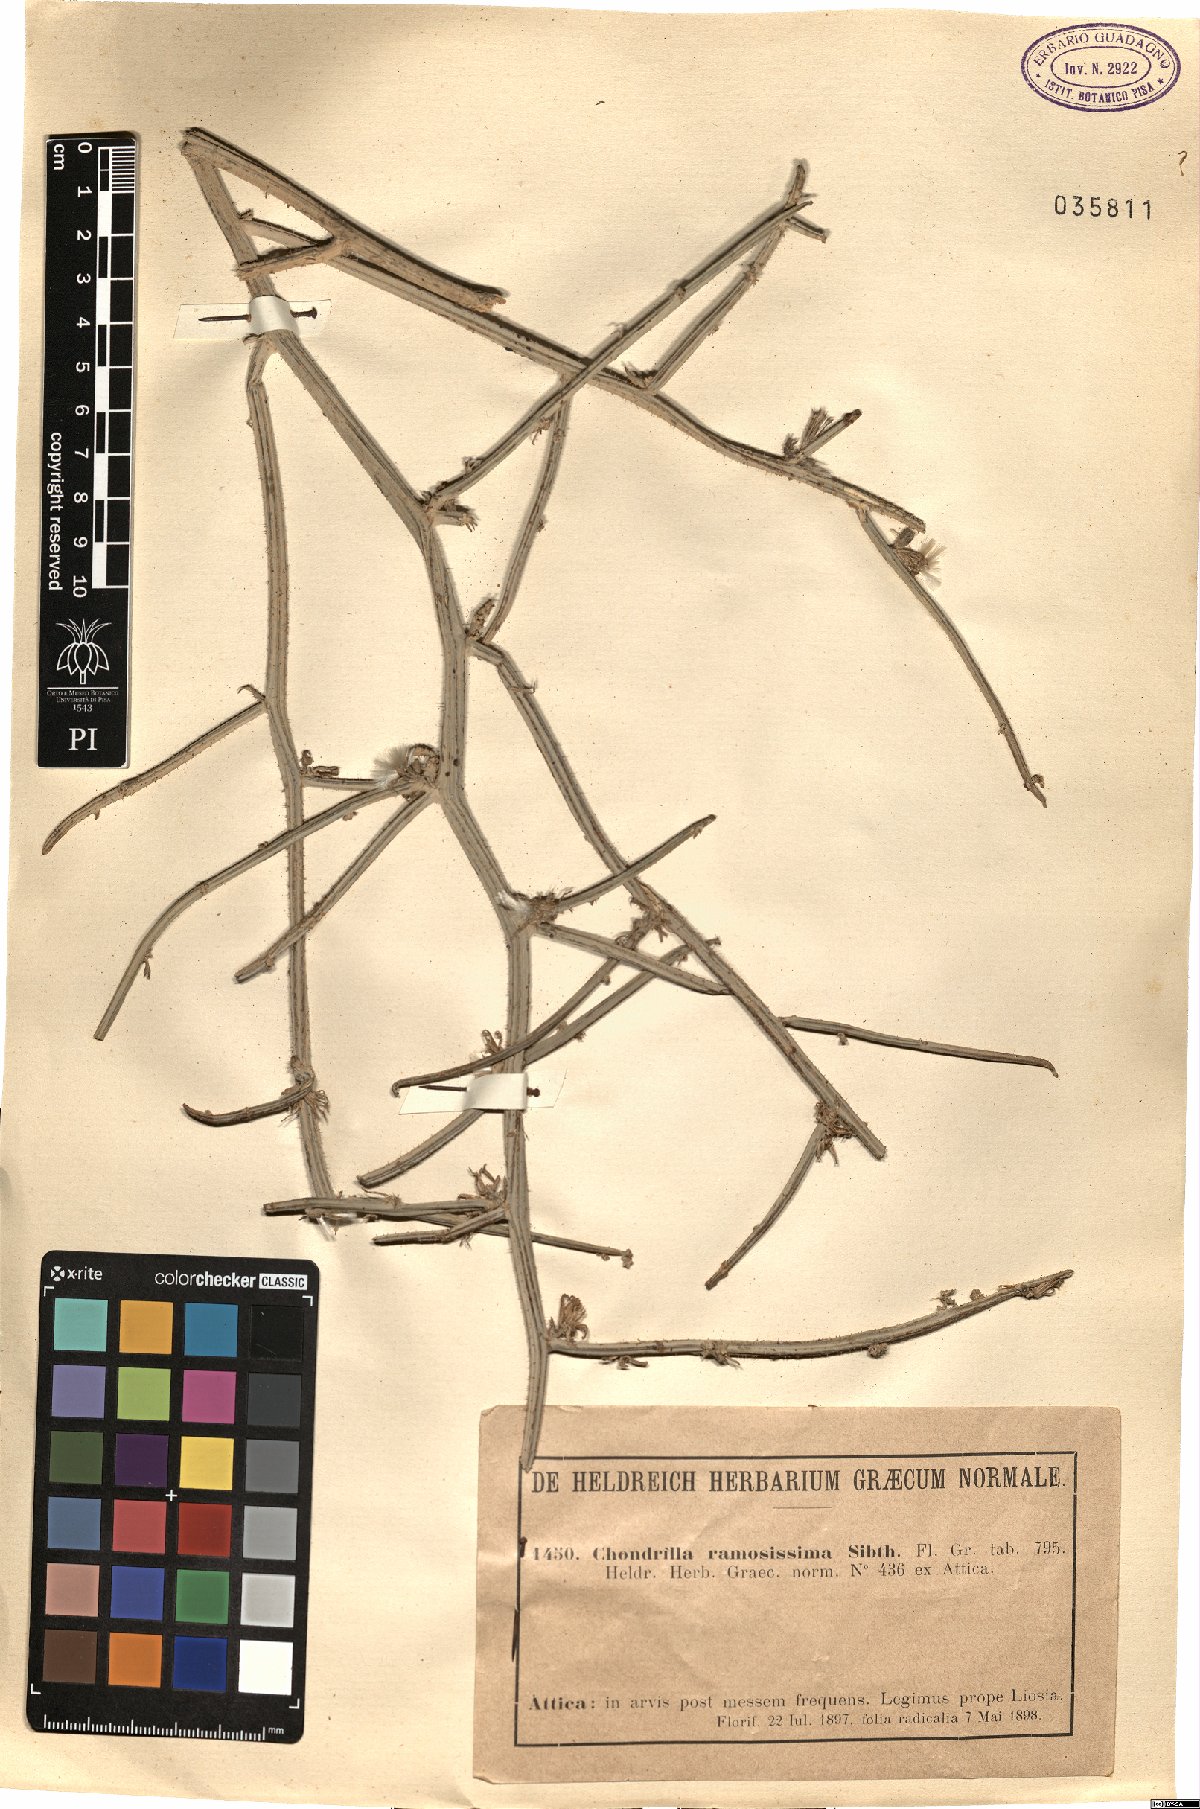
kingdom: Plantae
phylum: Tracheophyta
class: Magnoliopsida
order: Asterales
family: Asteraceae
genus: Chondrilla
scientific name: Chondrilla ramosissima
